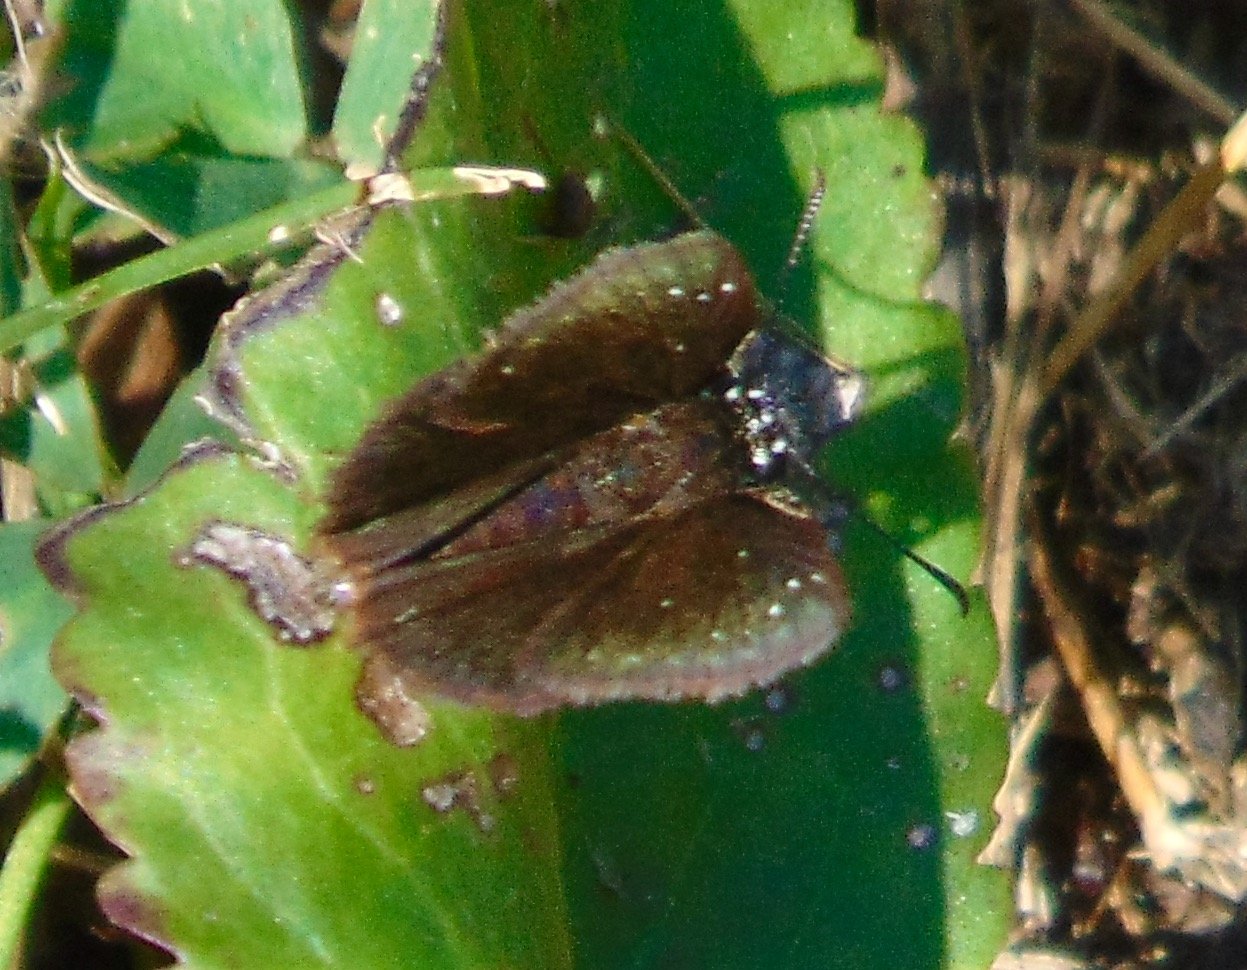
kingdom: Animalia
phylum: Arthropoda
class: Insecta
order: Lepidoptera
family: Hesperiidae
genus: Pholisora
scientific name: Pholisora catullus
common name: Common Sootywing
